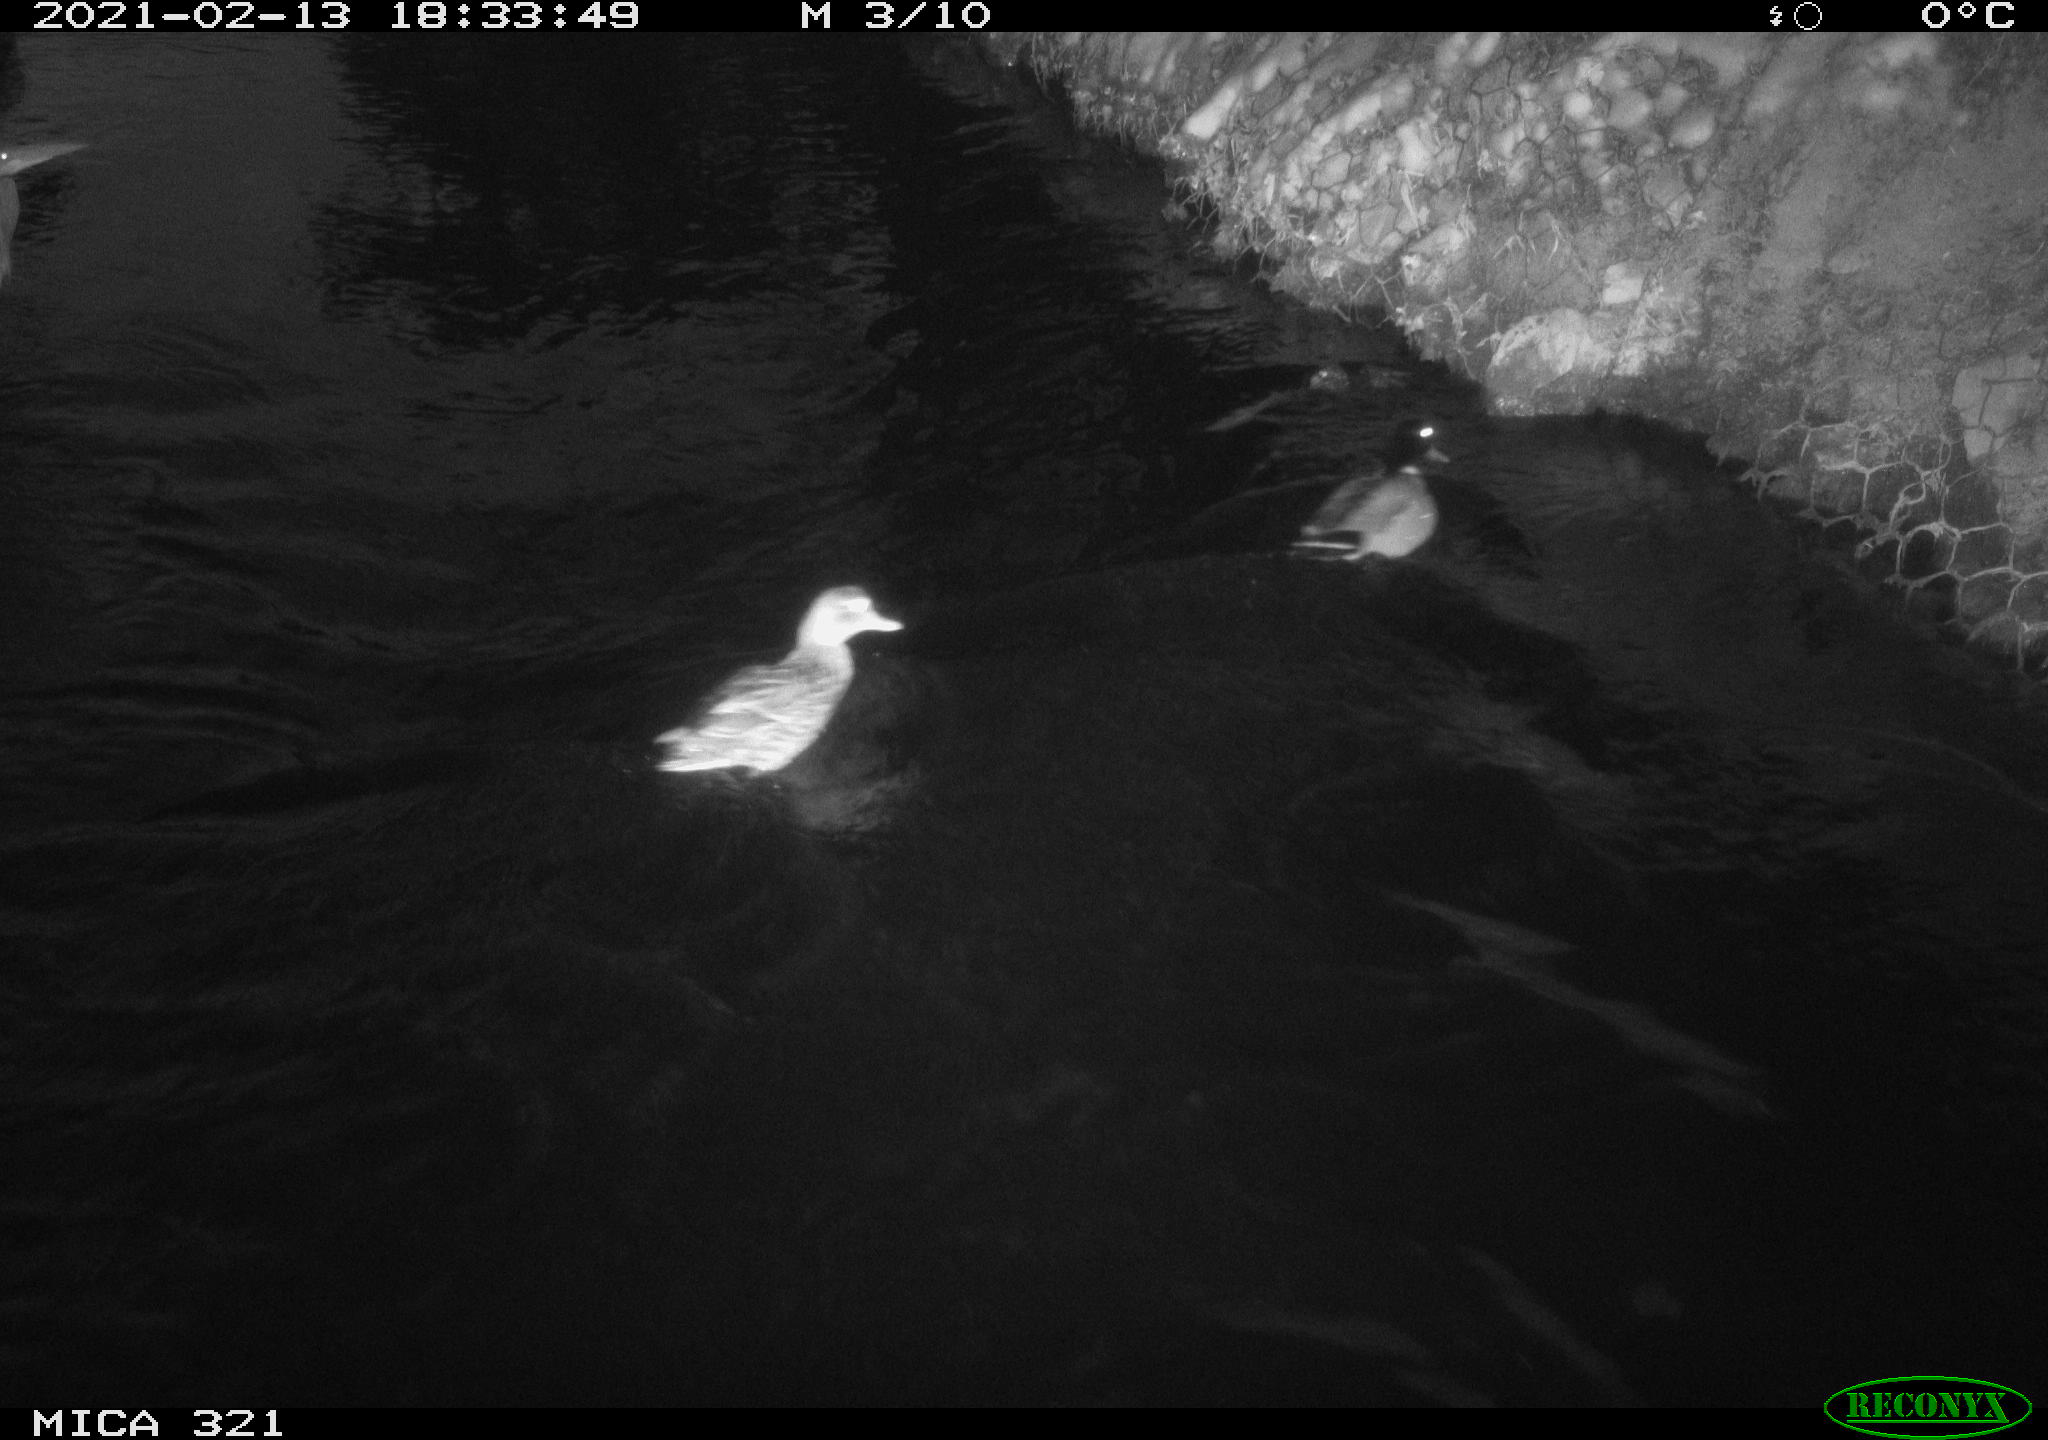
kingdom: Animalia
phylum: Chordata
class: Aves
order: Anseriformes
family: Anatidae
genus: Anas
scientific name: Anas platyrhynchos
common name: Mallard
